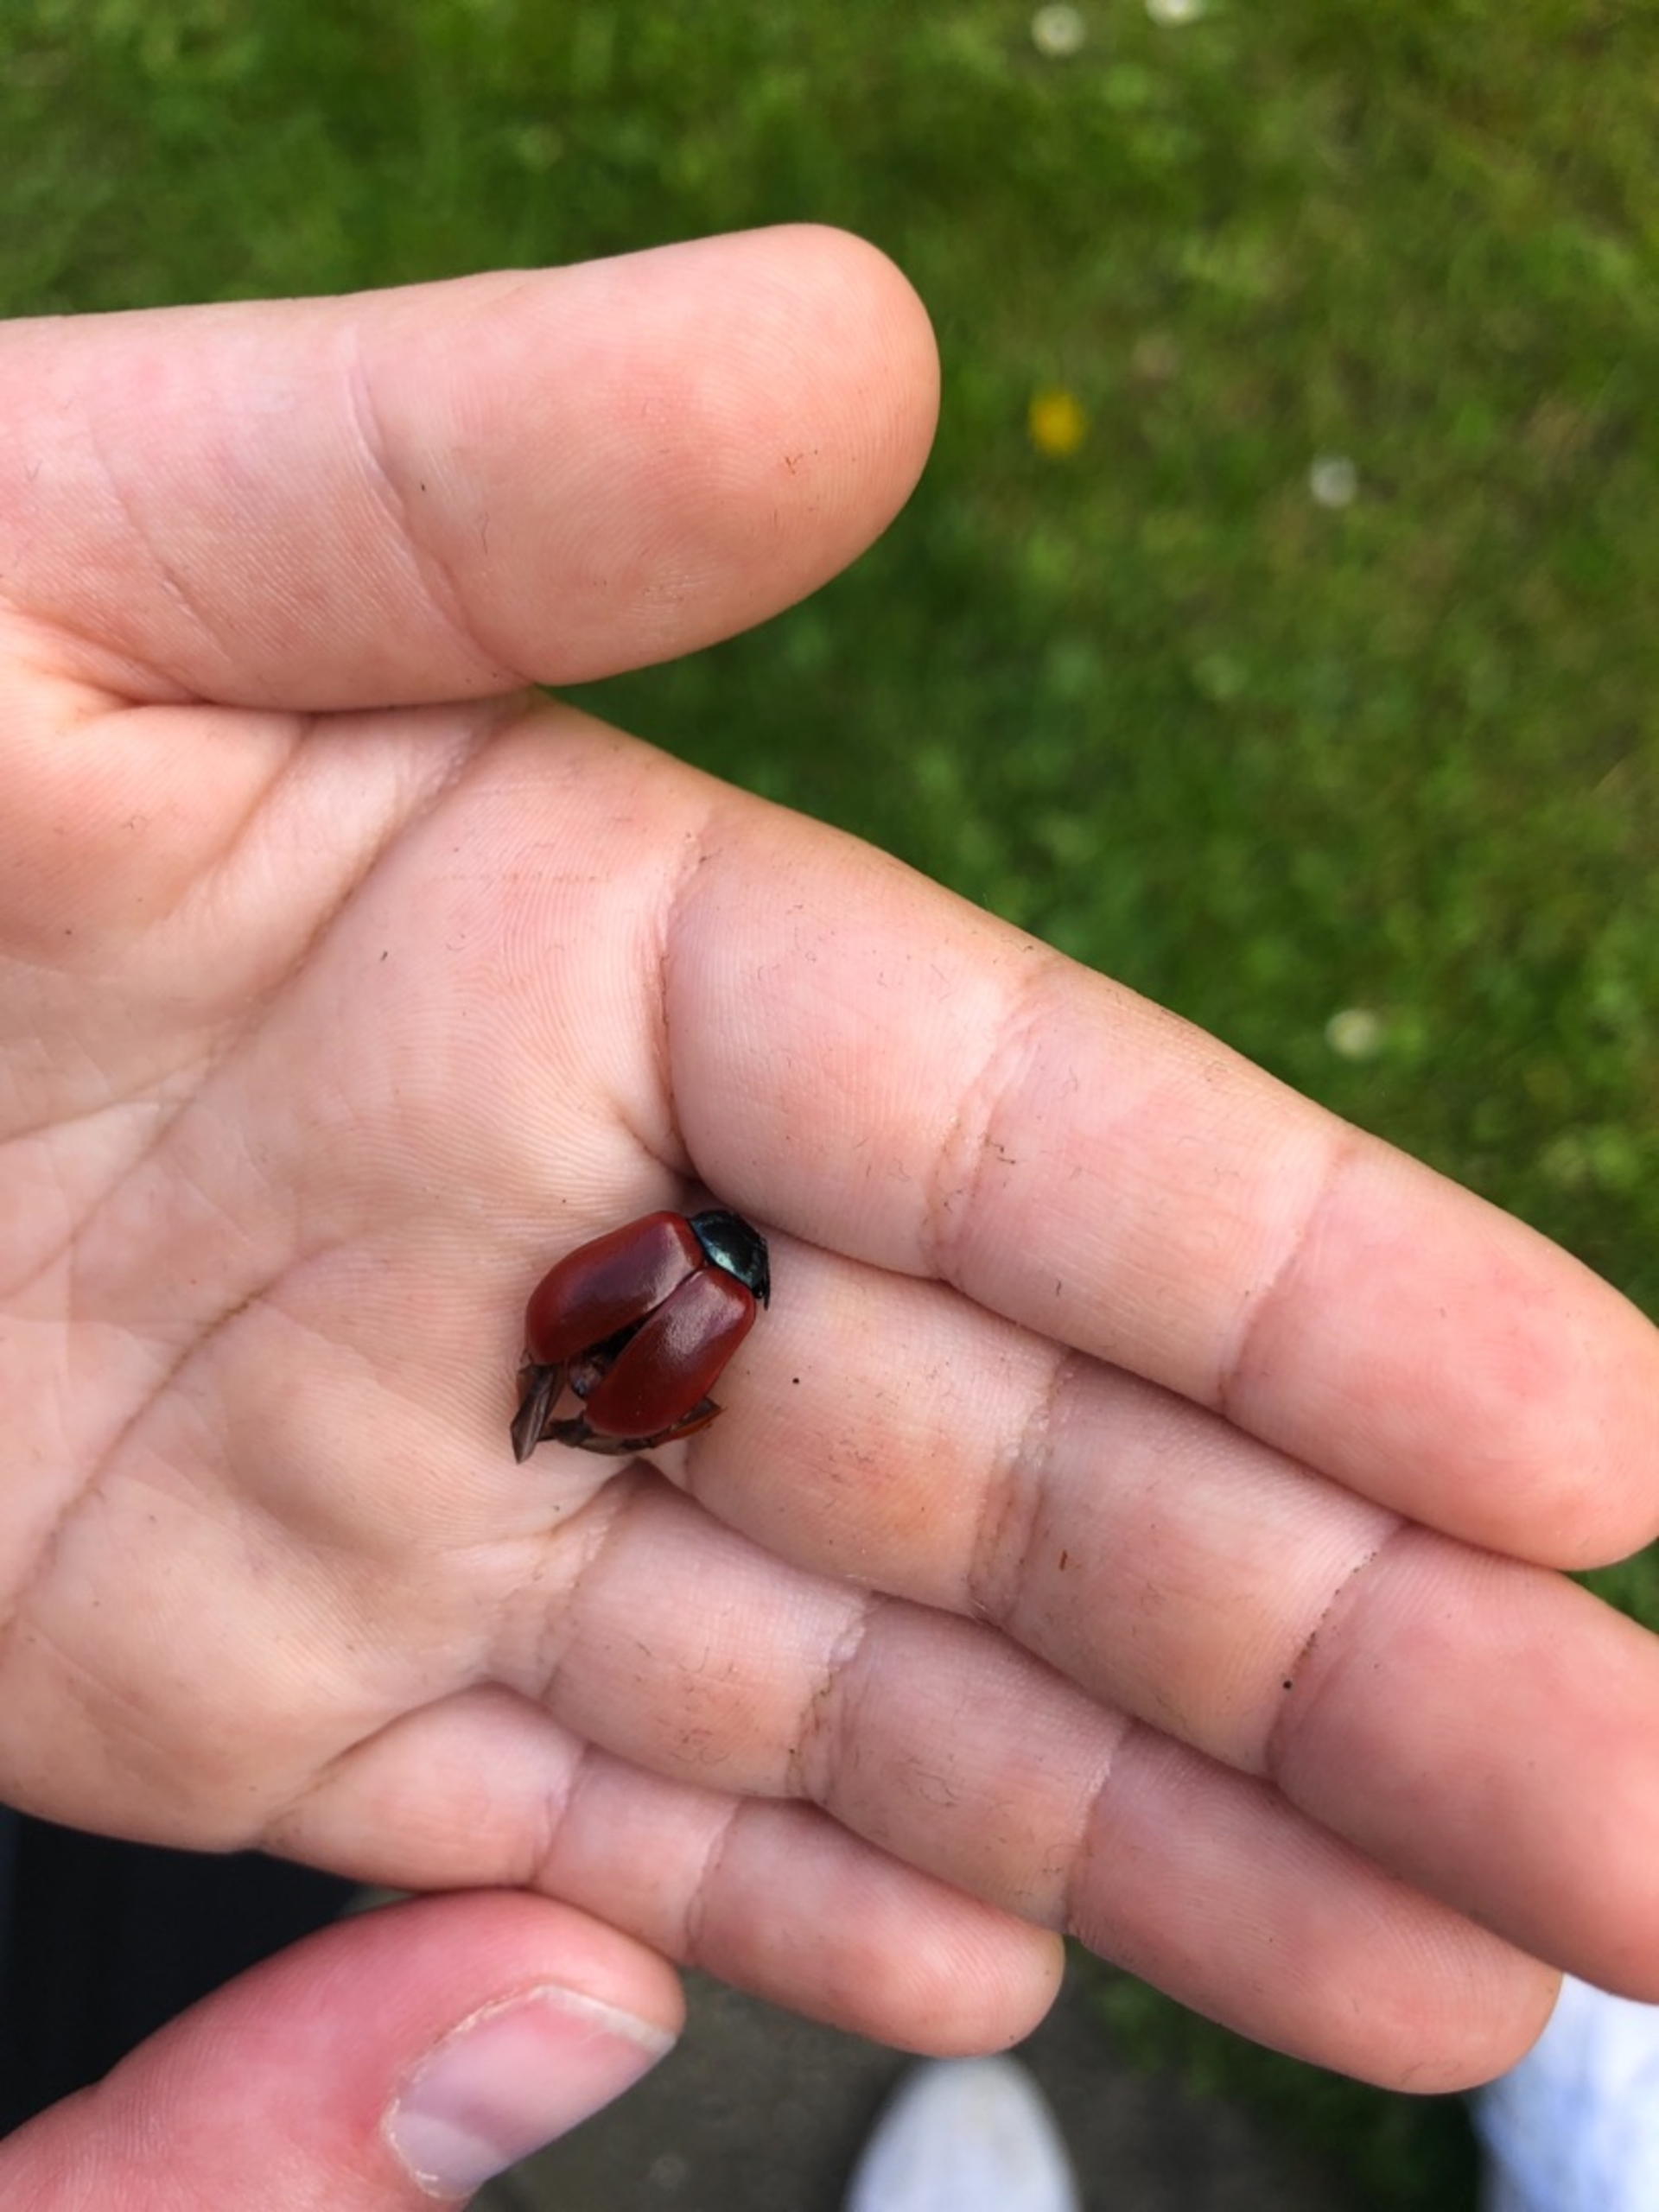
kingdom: Animalia
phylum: Arthropoda
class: Insecta
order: Coleoptera
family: Chrysomelidae
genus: Chrysomela
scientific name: Chrysomela populi
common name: Poppelbladbille
